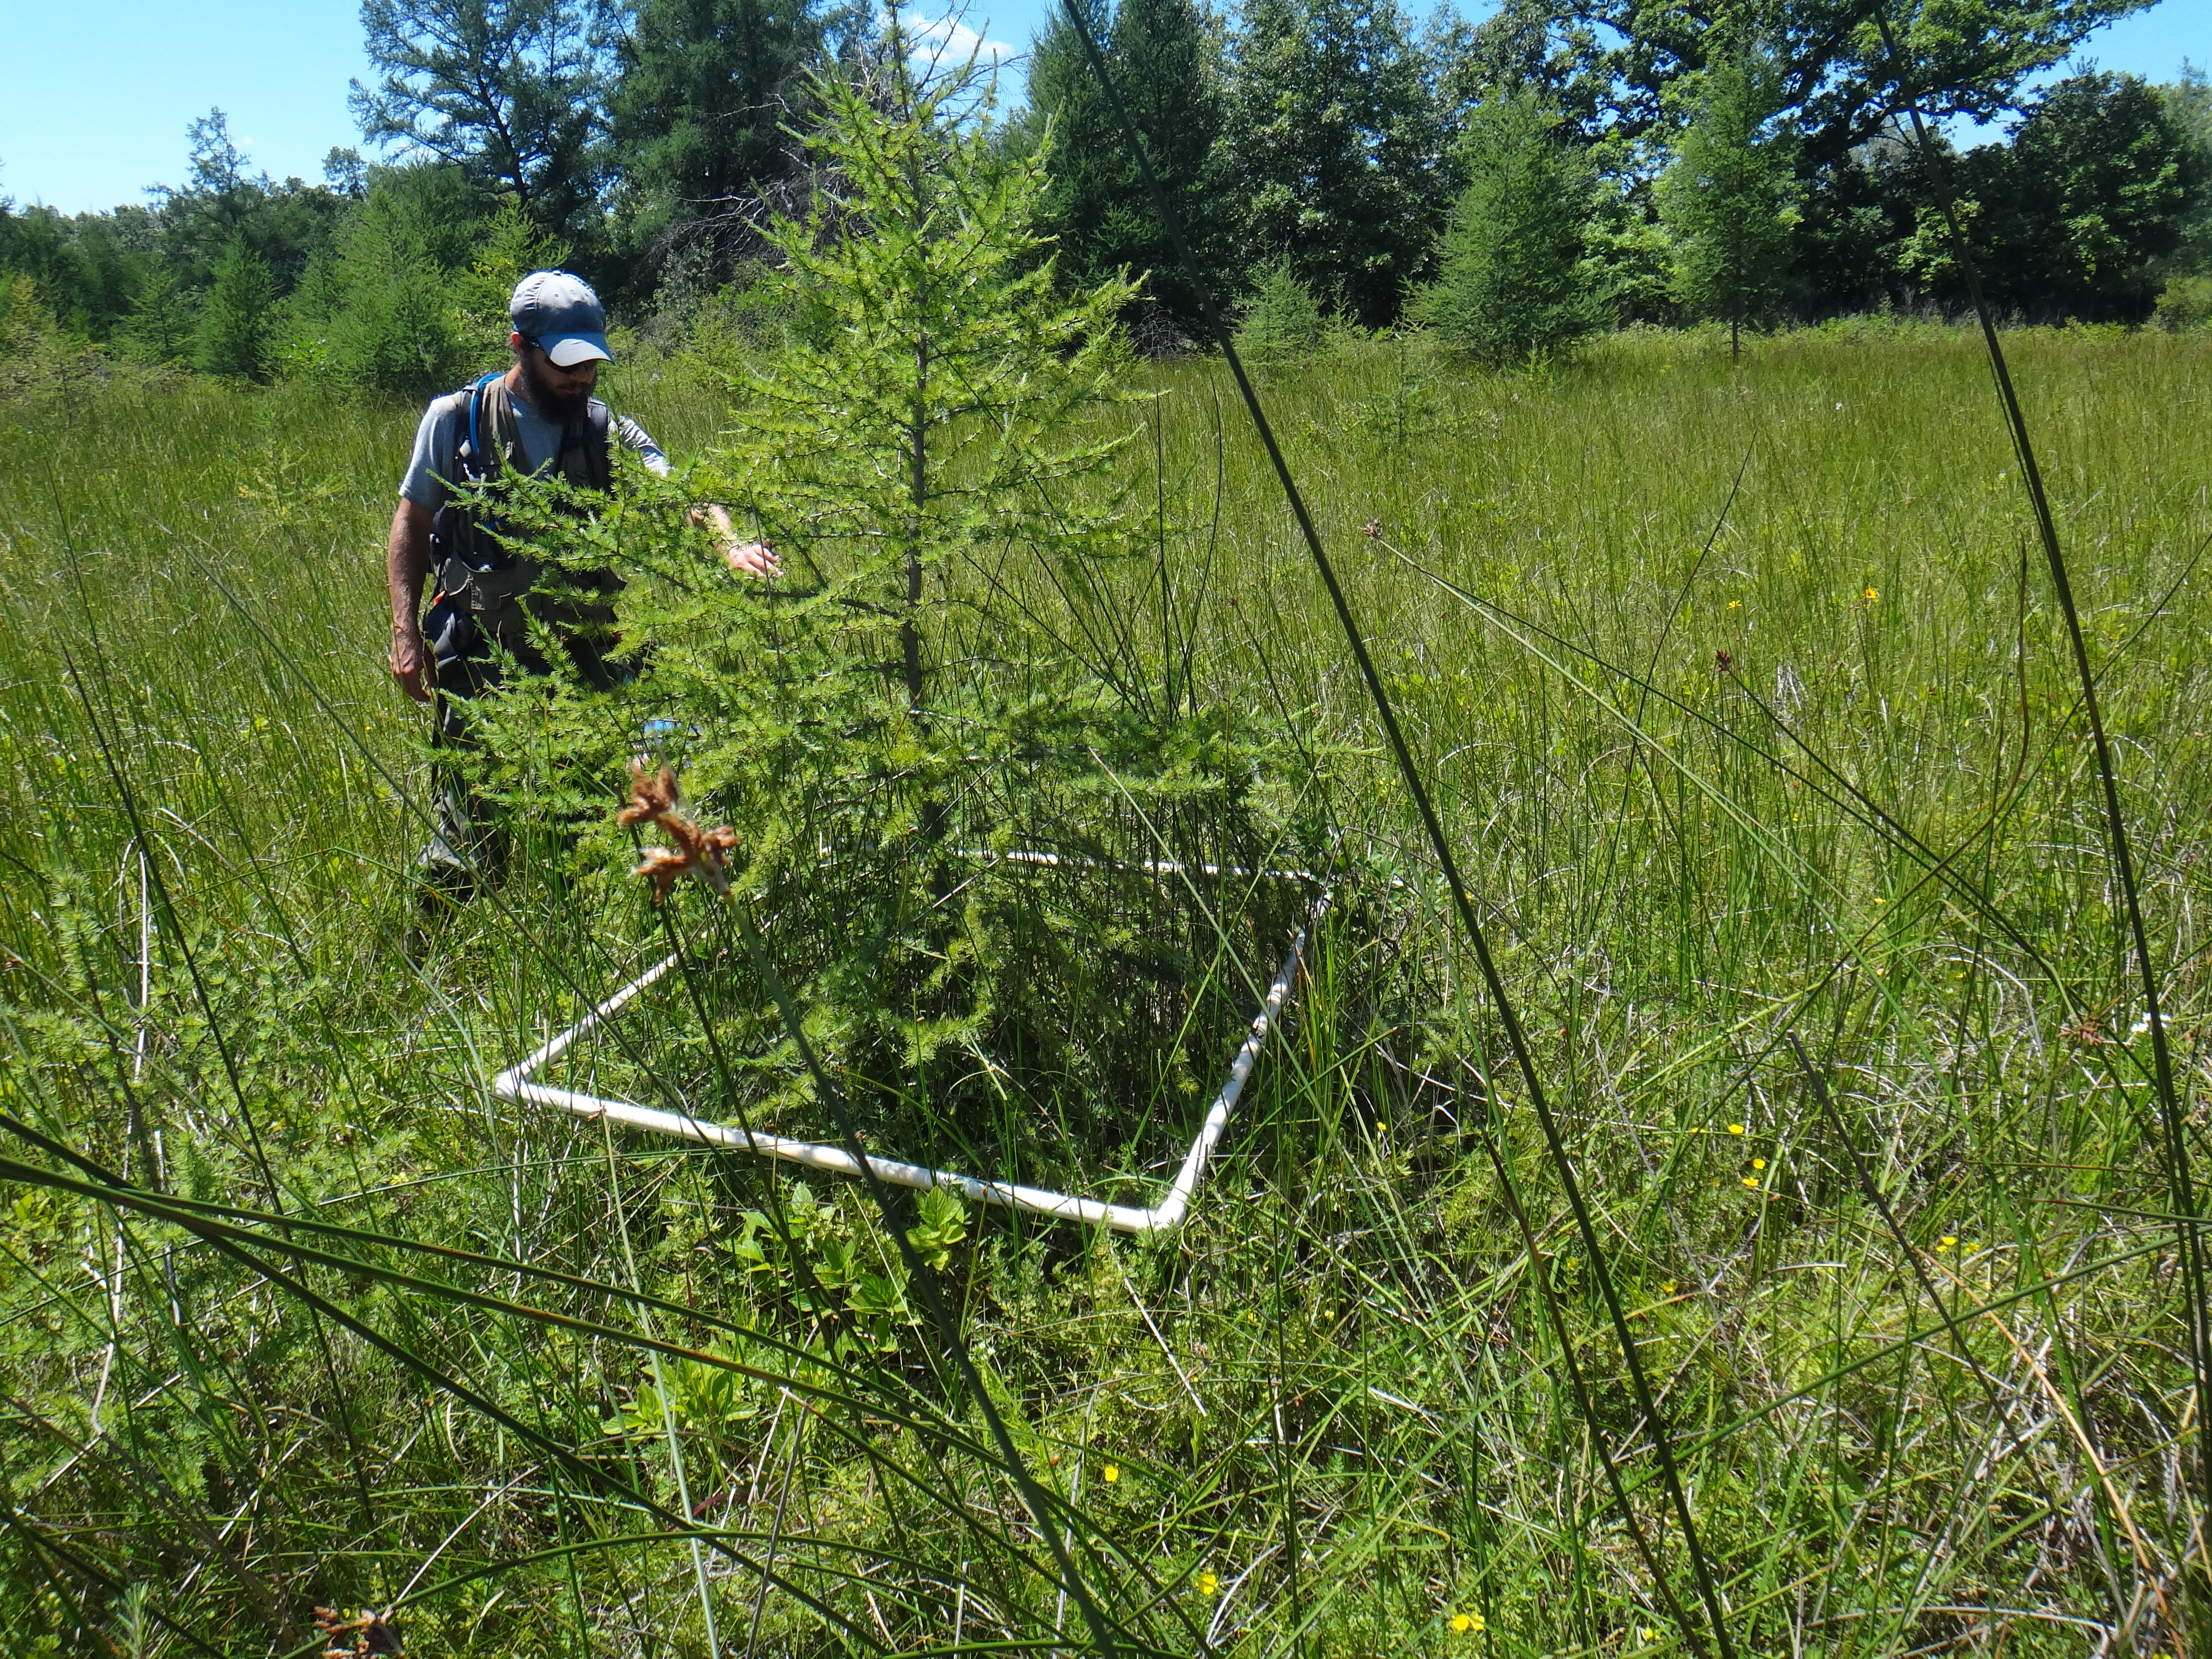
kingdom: Plantae
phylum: Tracheophyta
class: Magnoliopsida
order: Asterales
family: Asteraceae
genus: Silphium
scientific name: Silphium terebinthinaceum
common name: Basal-leaf rosinweed
